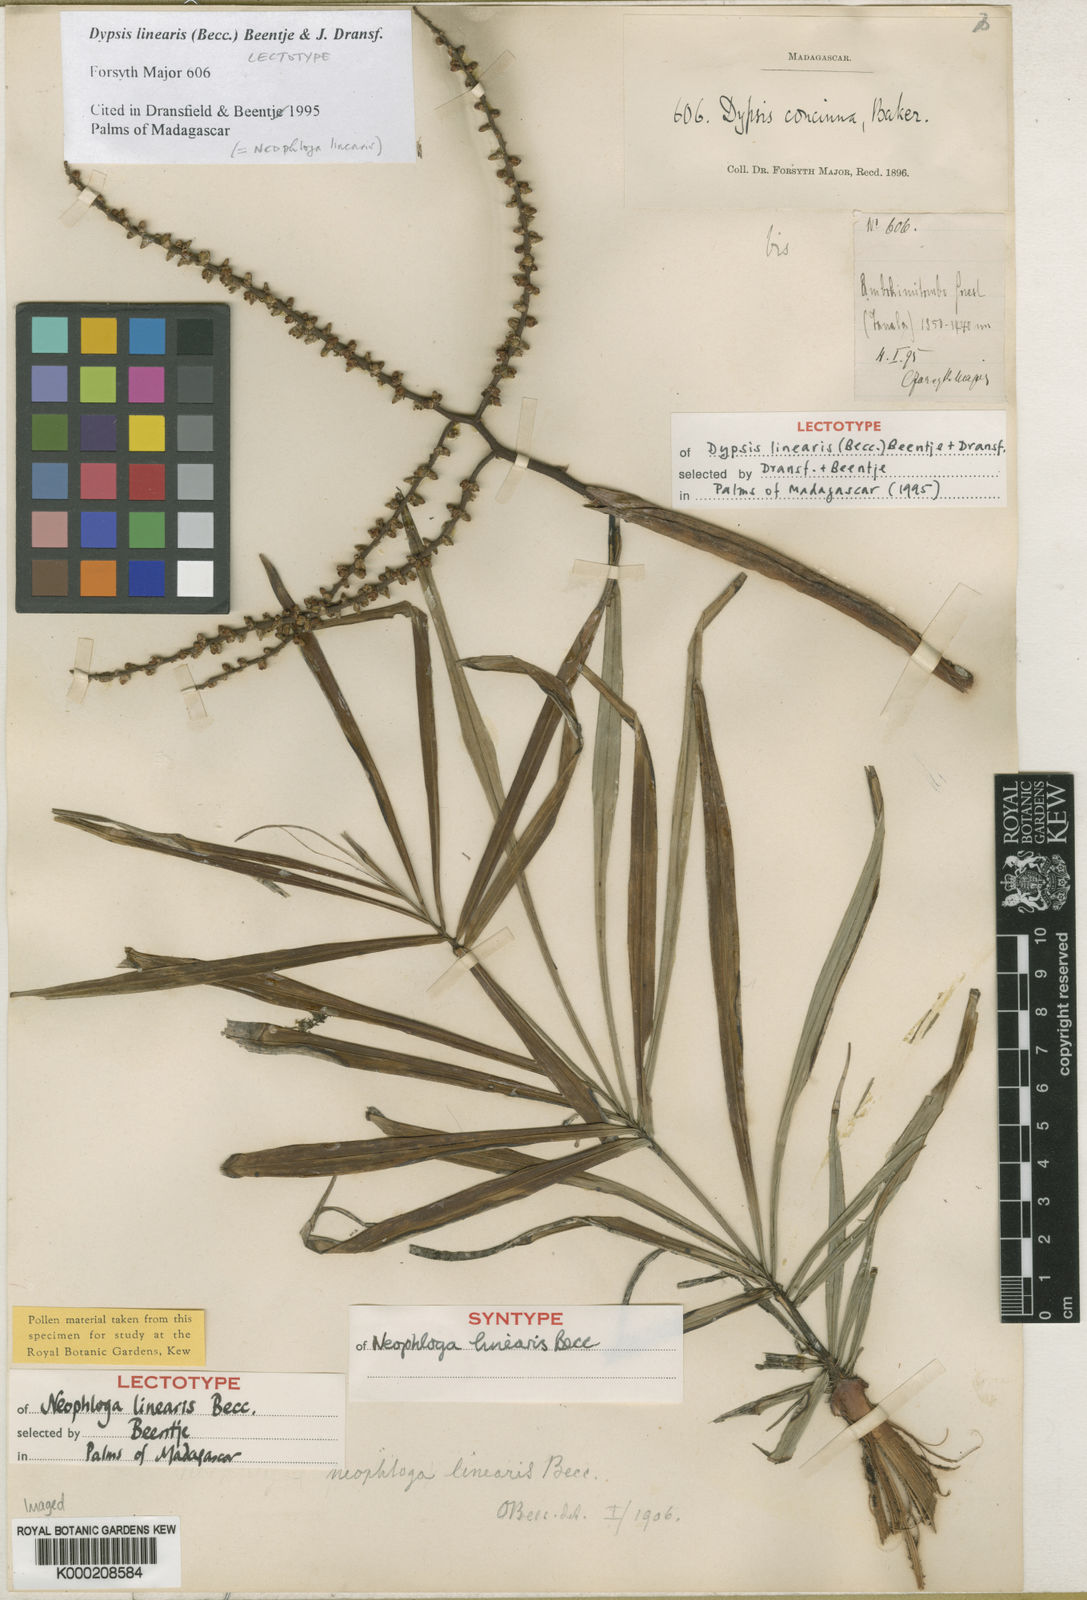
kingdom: Plantae
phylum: Tracheophyta
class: Liliopsida
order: Arecales
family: Arecaceae
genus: Dypsis
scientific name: Dypsis procumbens
